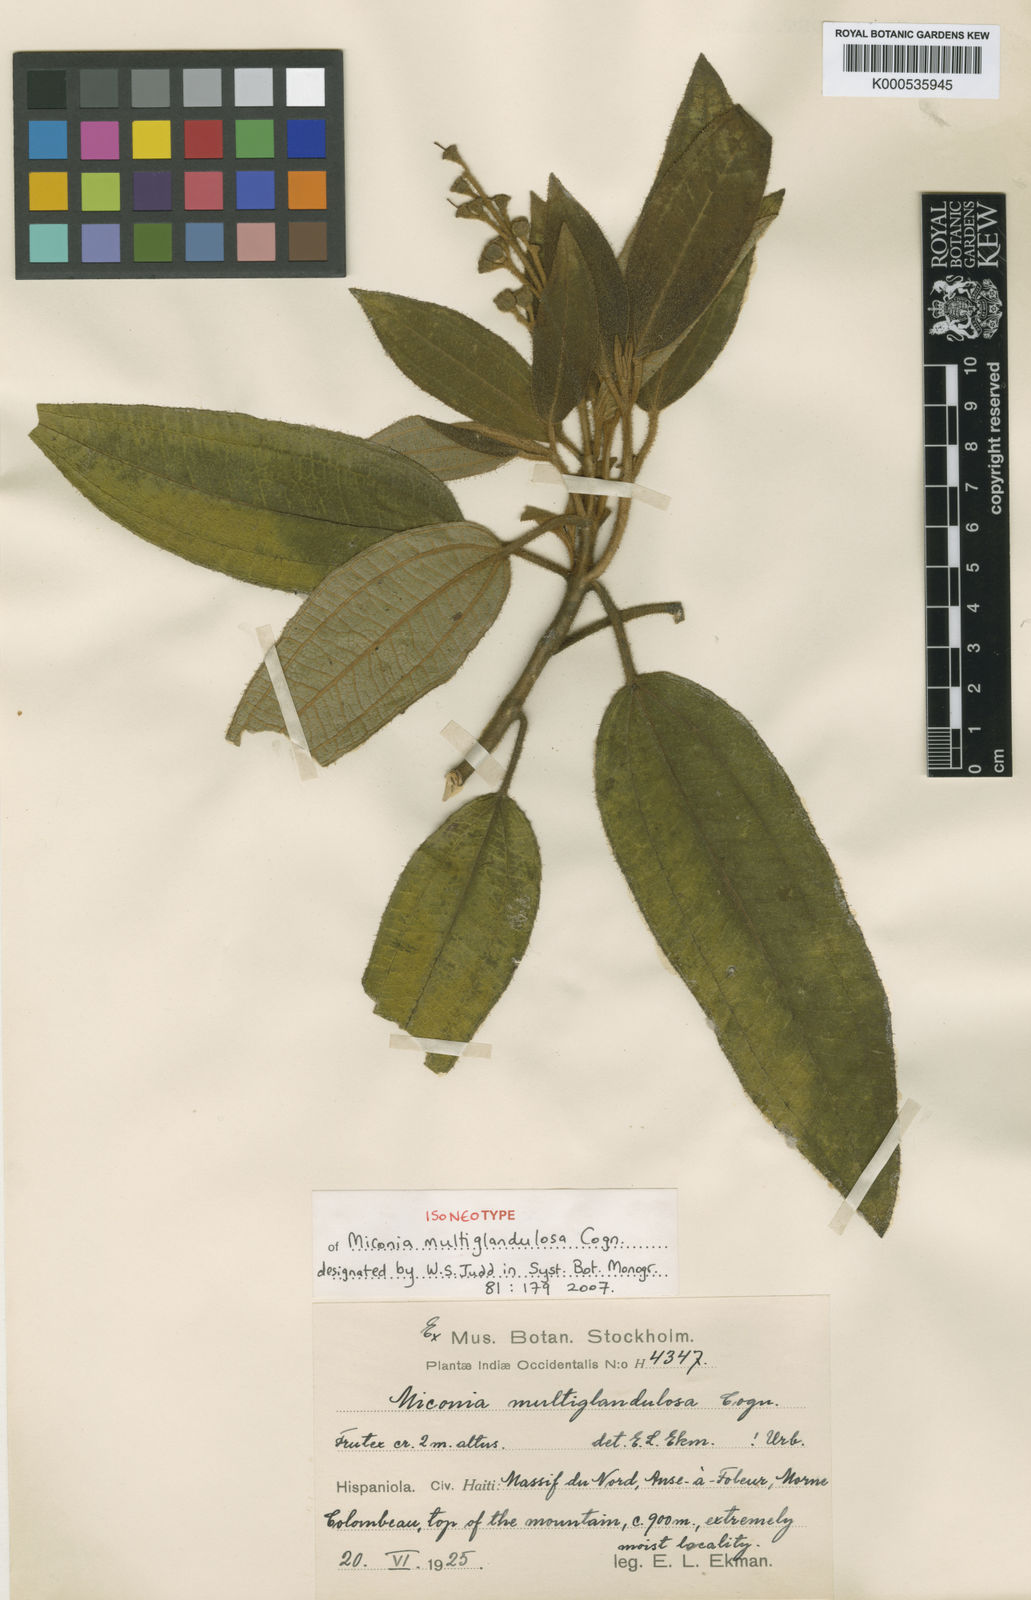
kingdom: Plantae
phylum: Tracheophyta
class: Magnoliopsida
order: Myrtales
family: Melastomataceae
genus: Miconia
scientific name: Miconia multiglandulosa
